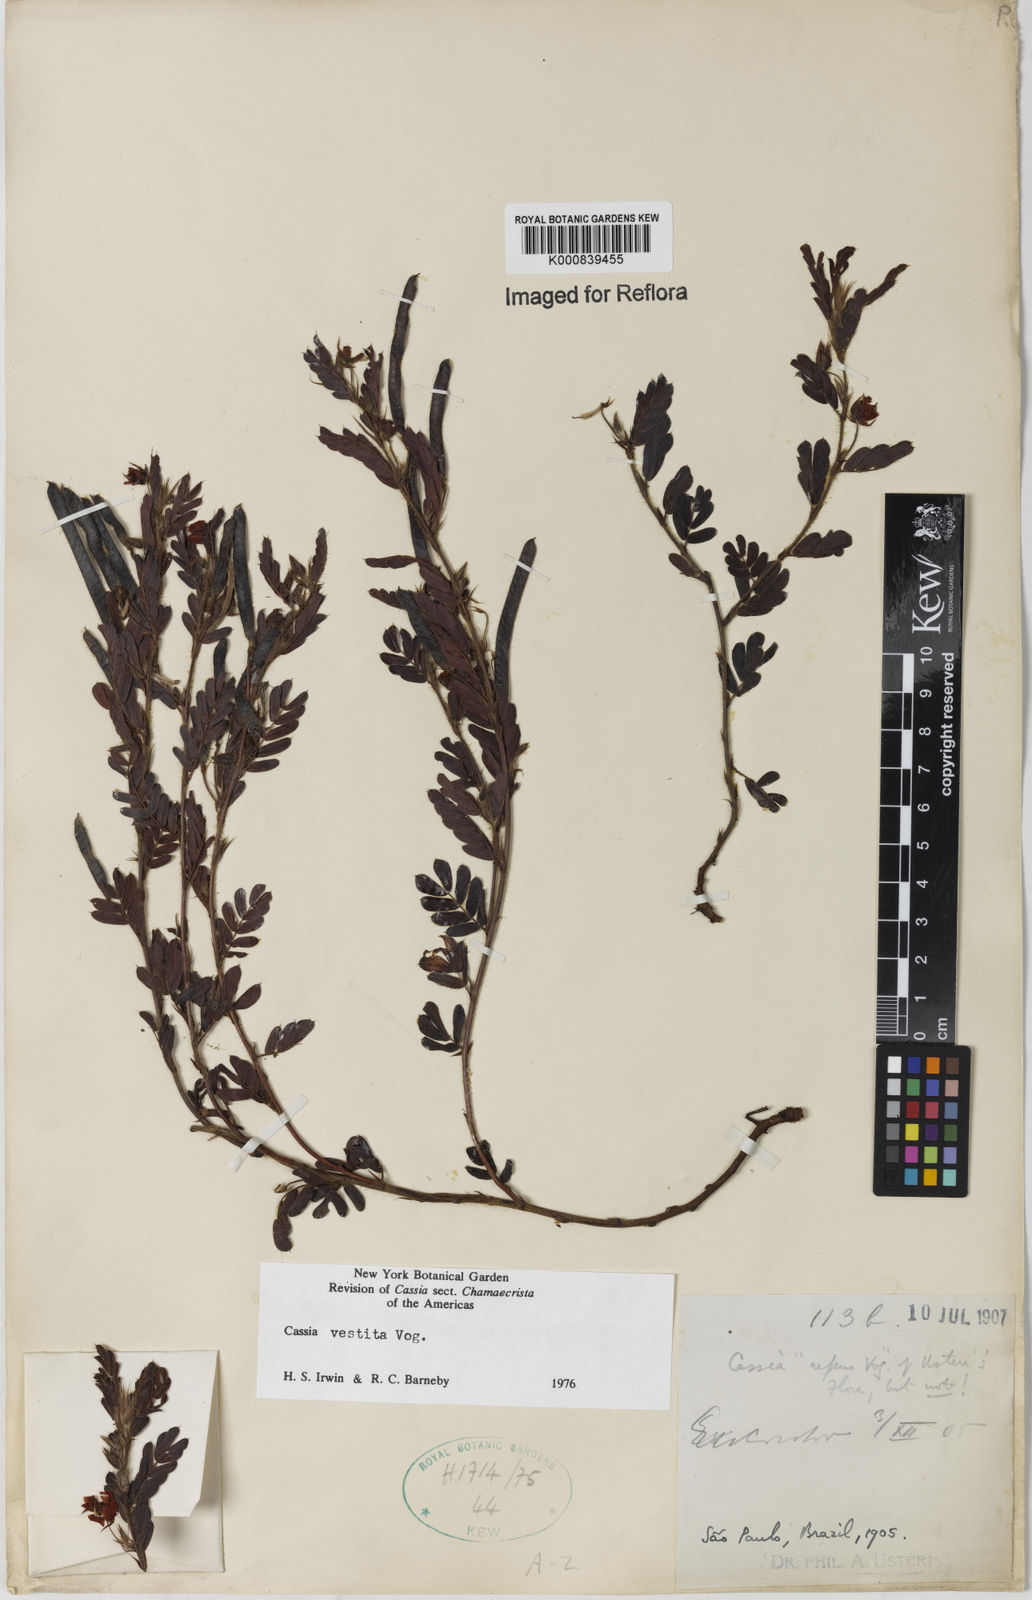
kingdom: Plantae
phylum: Tracheophyta
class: Magnoliopsida
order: Fabales
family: Fabaceae
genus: Chamaecrista
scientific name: Chamaecrista
